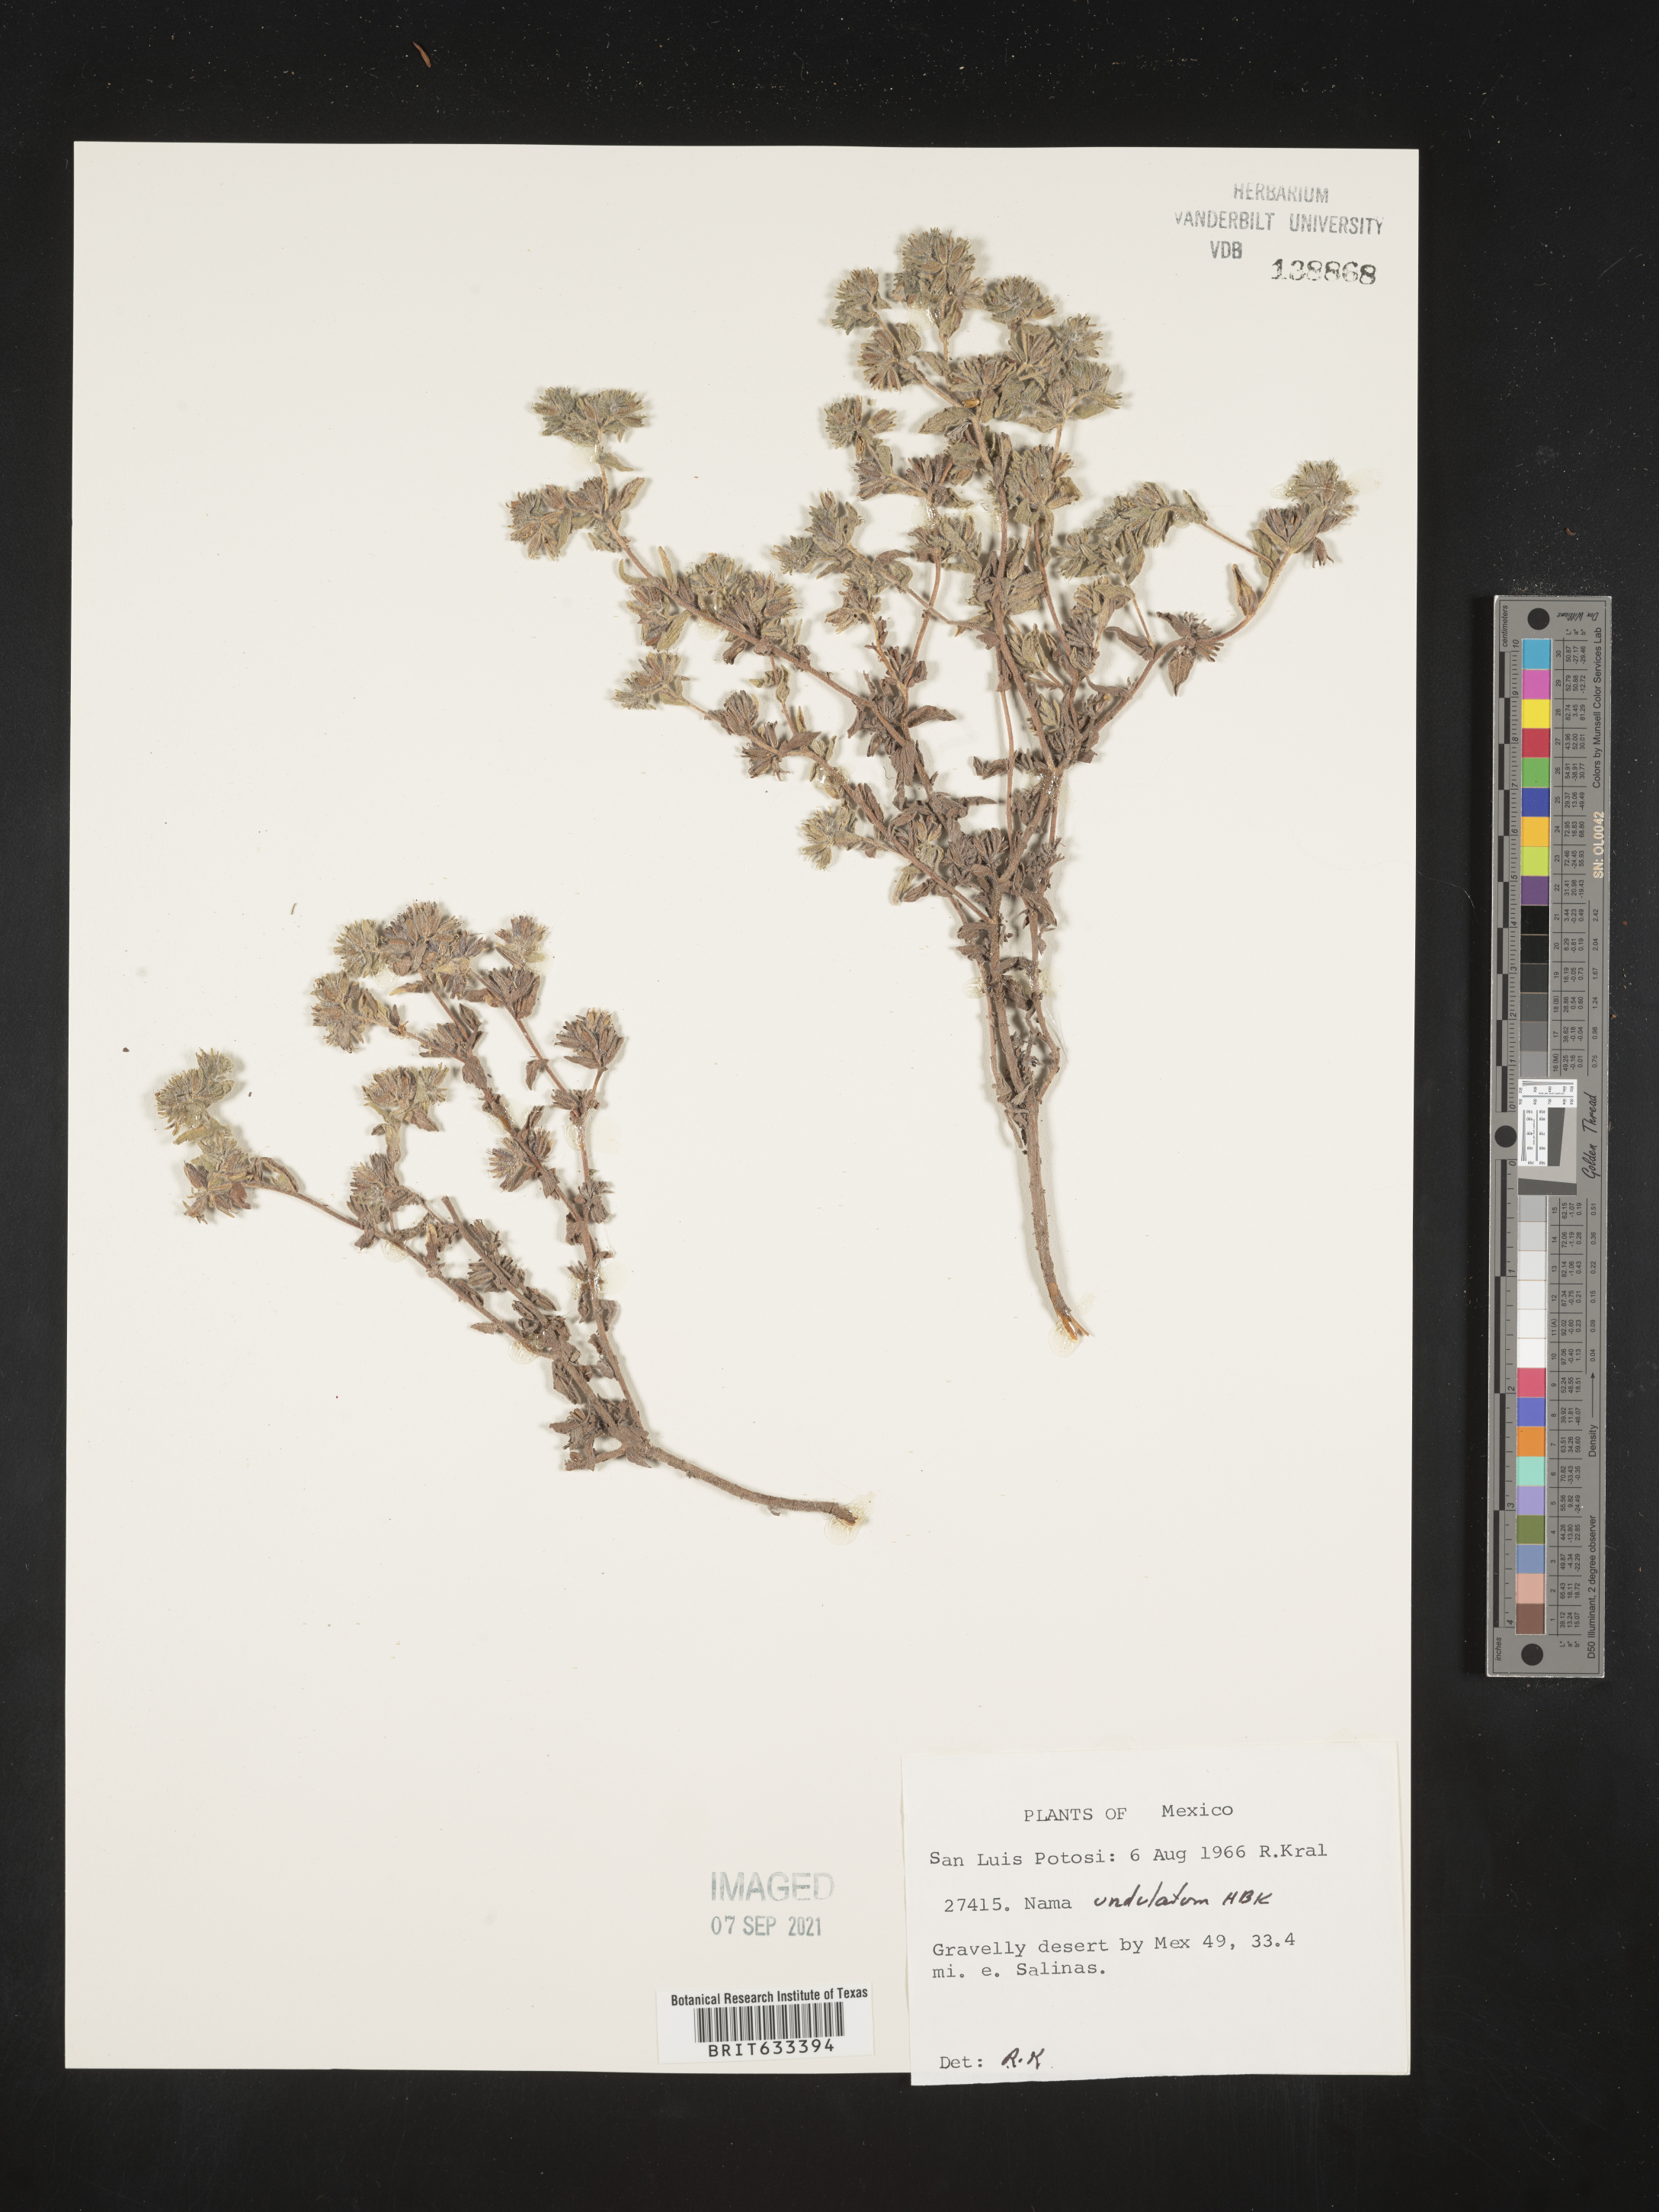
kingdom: Plantae
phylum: Tracheophyta
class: Magnoliopsida
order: Boraginales
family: Namaceae
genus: Nama
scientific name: Nama
